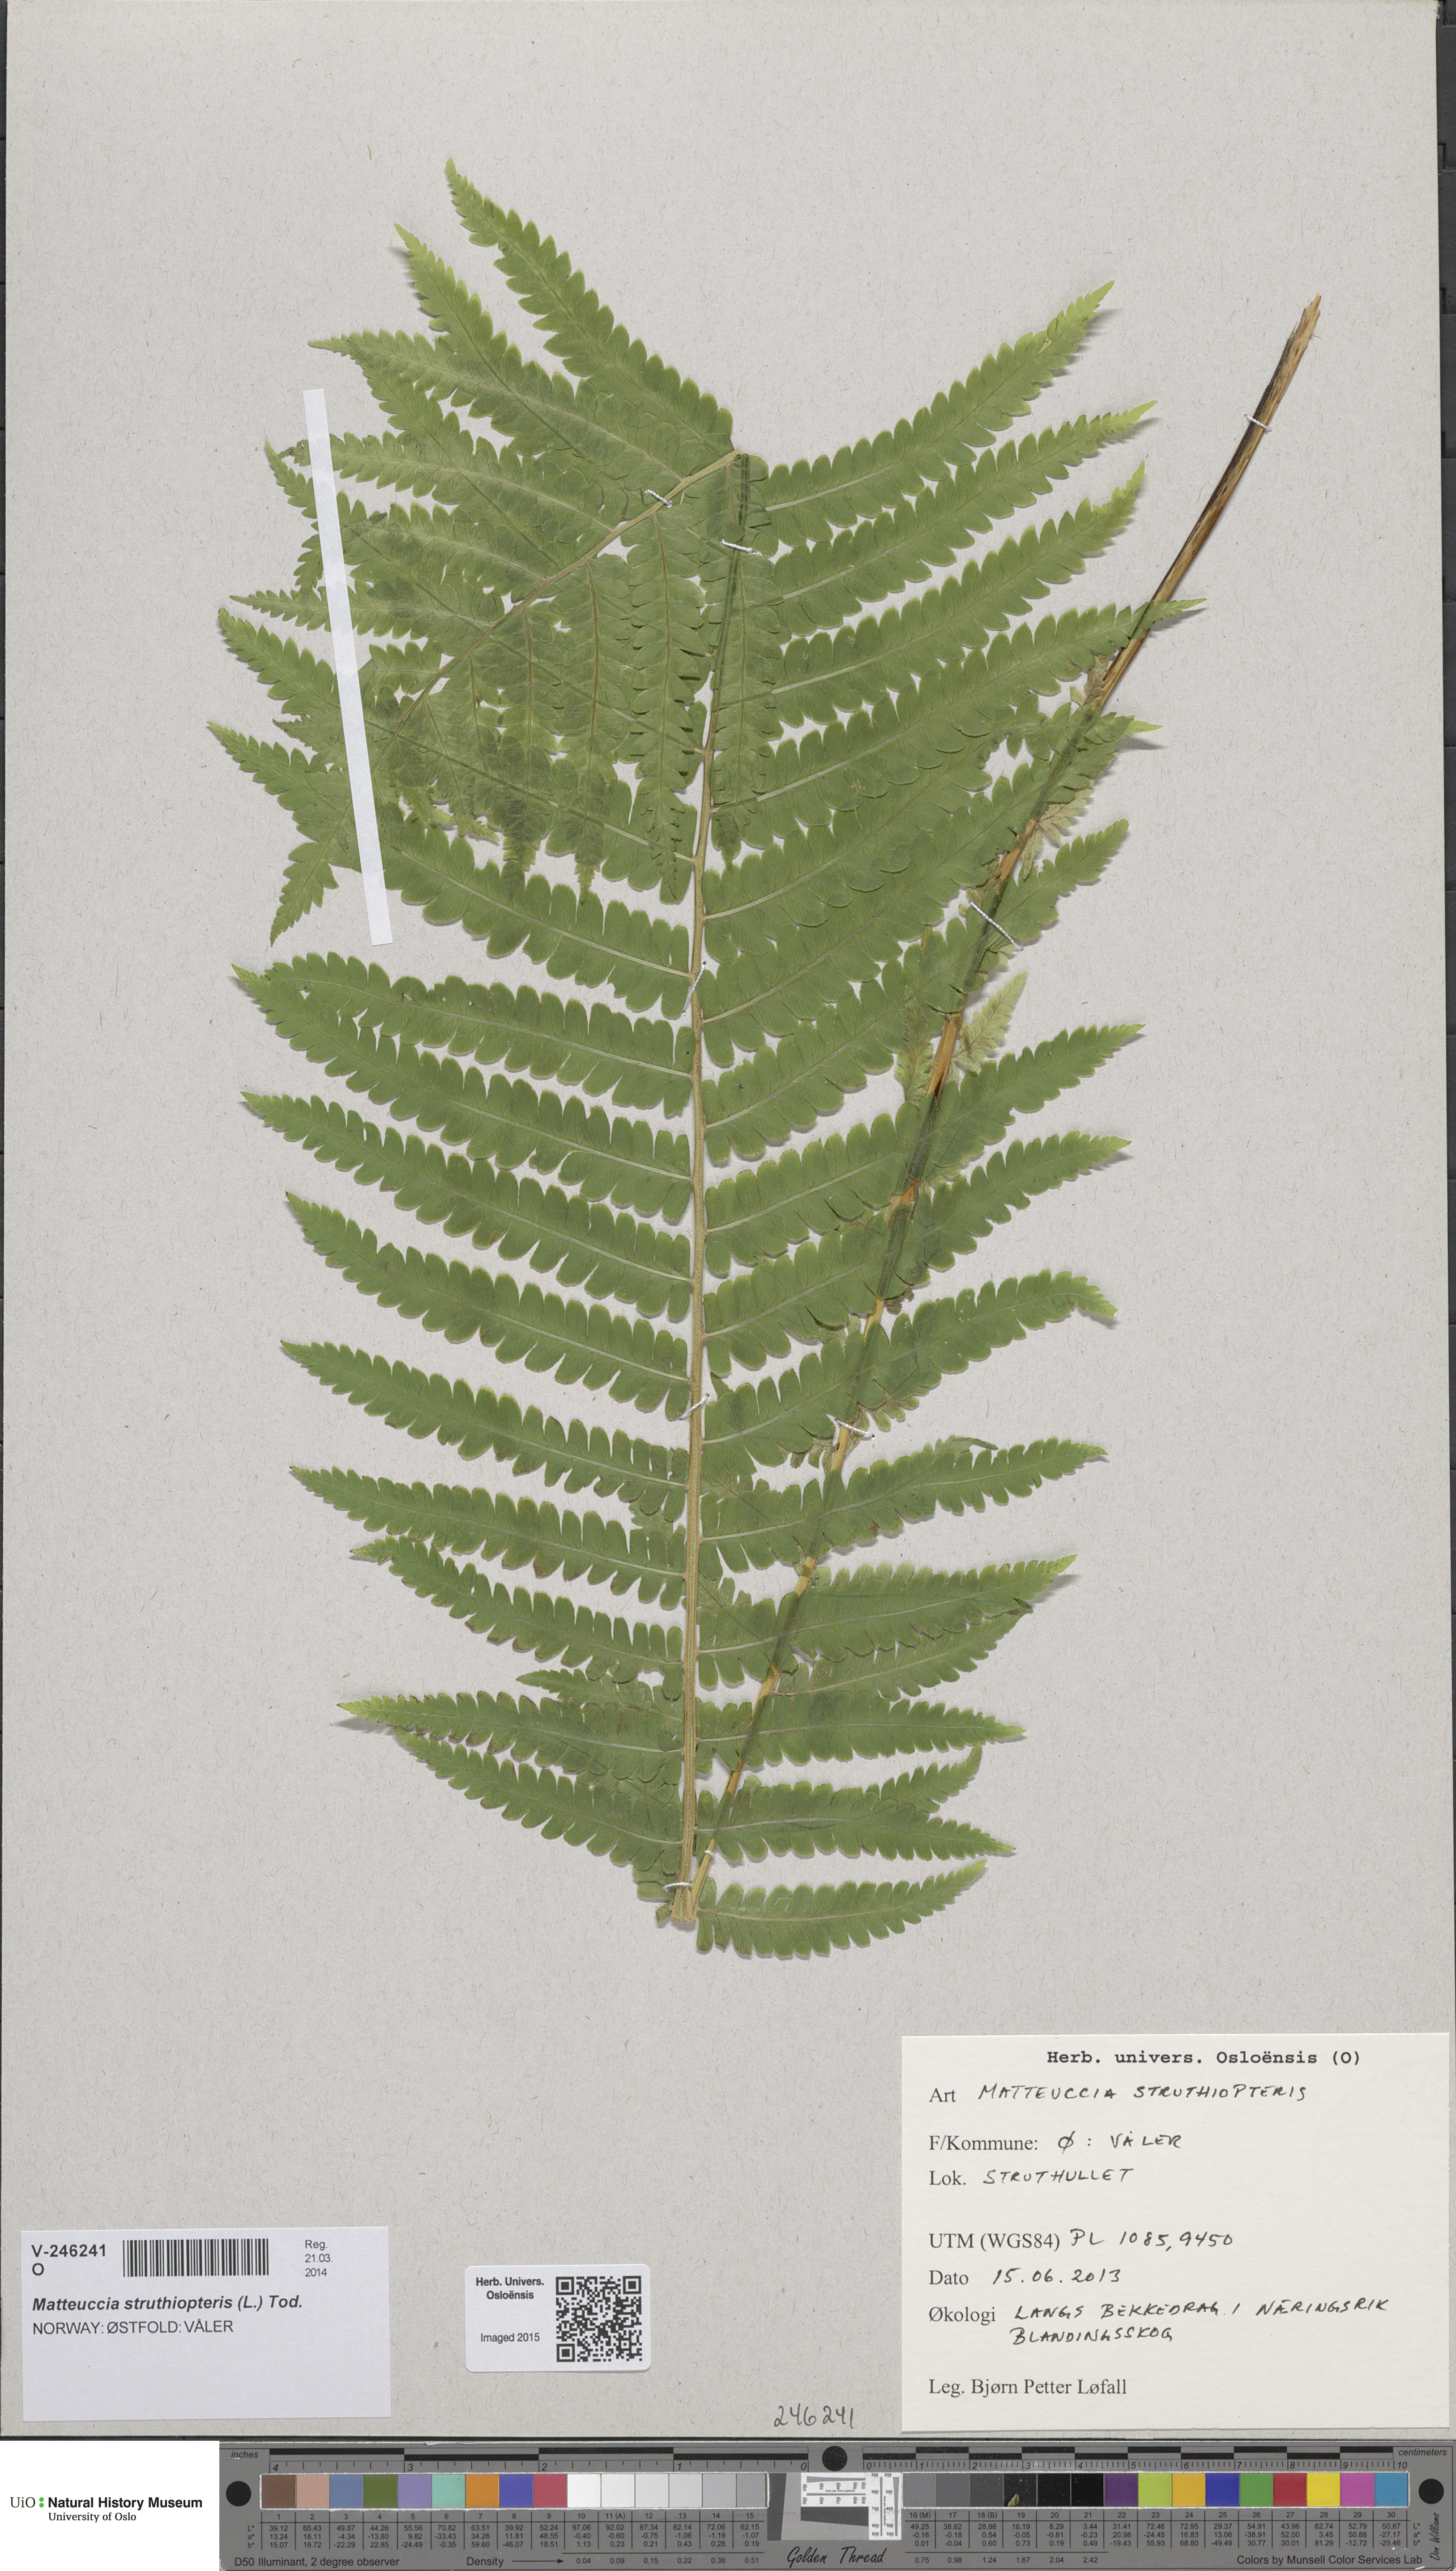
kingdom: Plantae
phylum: Tracheophyta
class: Polypodiopsida
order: Polypodiales
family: Onocleaceae
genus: Matteuccia
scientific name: Matteuccia struthiopteris
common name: Ostrich fern
